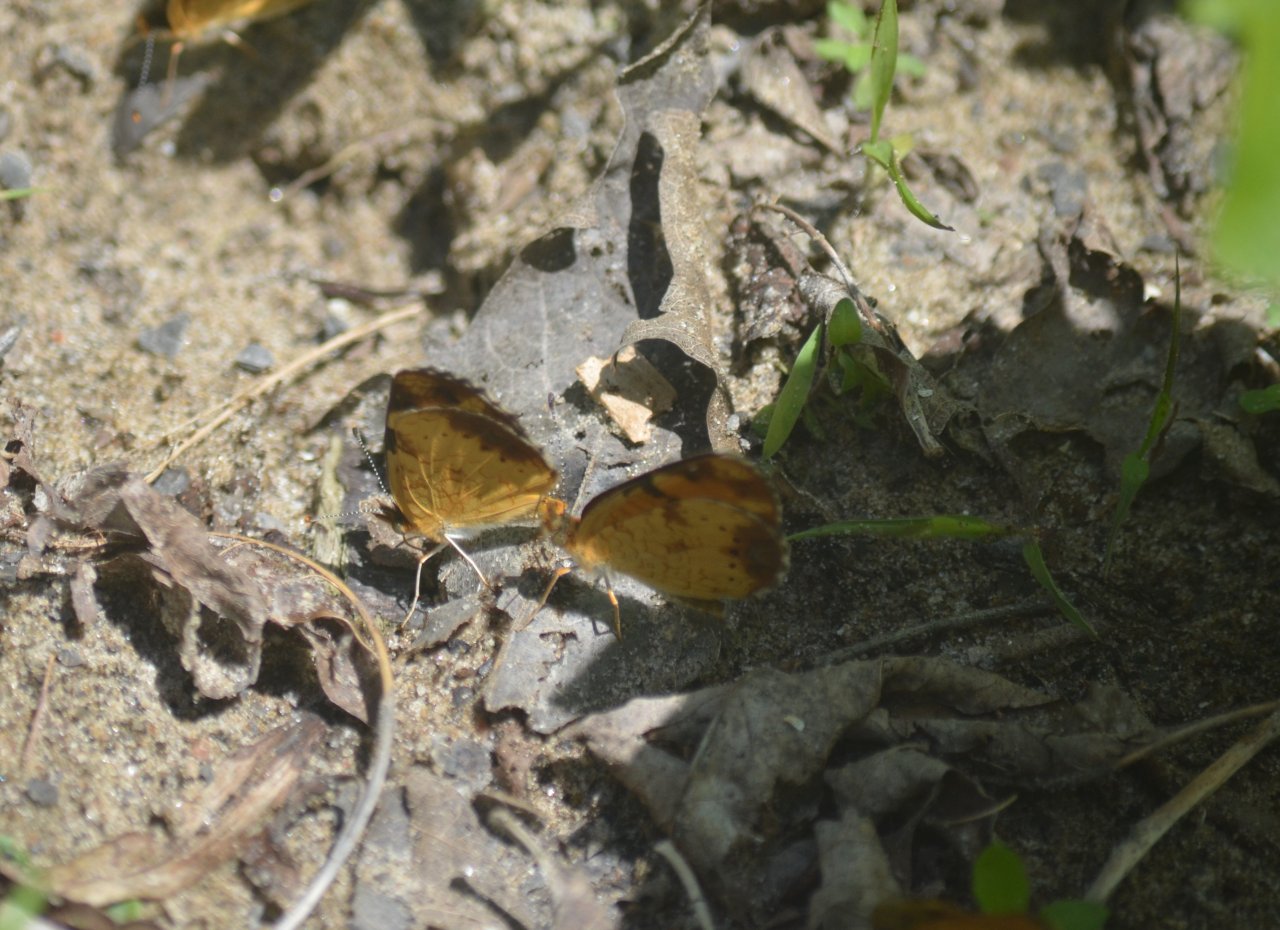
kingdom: Animalia
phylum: Arthropoda
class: Insecta
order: Lepidoptera
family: Nymphalidae
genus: Phyciodes
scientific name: Phyciodes tharos
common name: Northern Crescent
